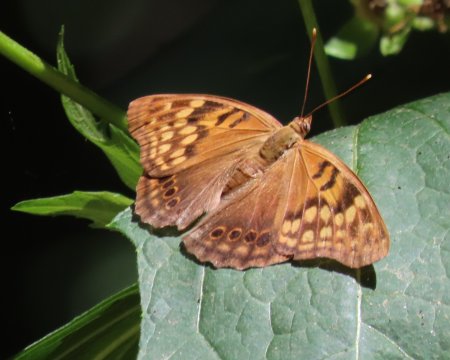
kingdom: Animalia
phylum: Arthropoda
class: Insecta
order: Lepidoptera
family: Nymphalidae
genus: Asterocampa
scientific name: Asterocampa clyton
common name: Tawny Emperor
